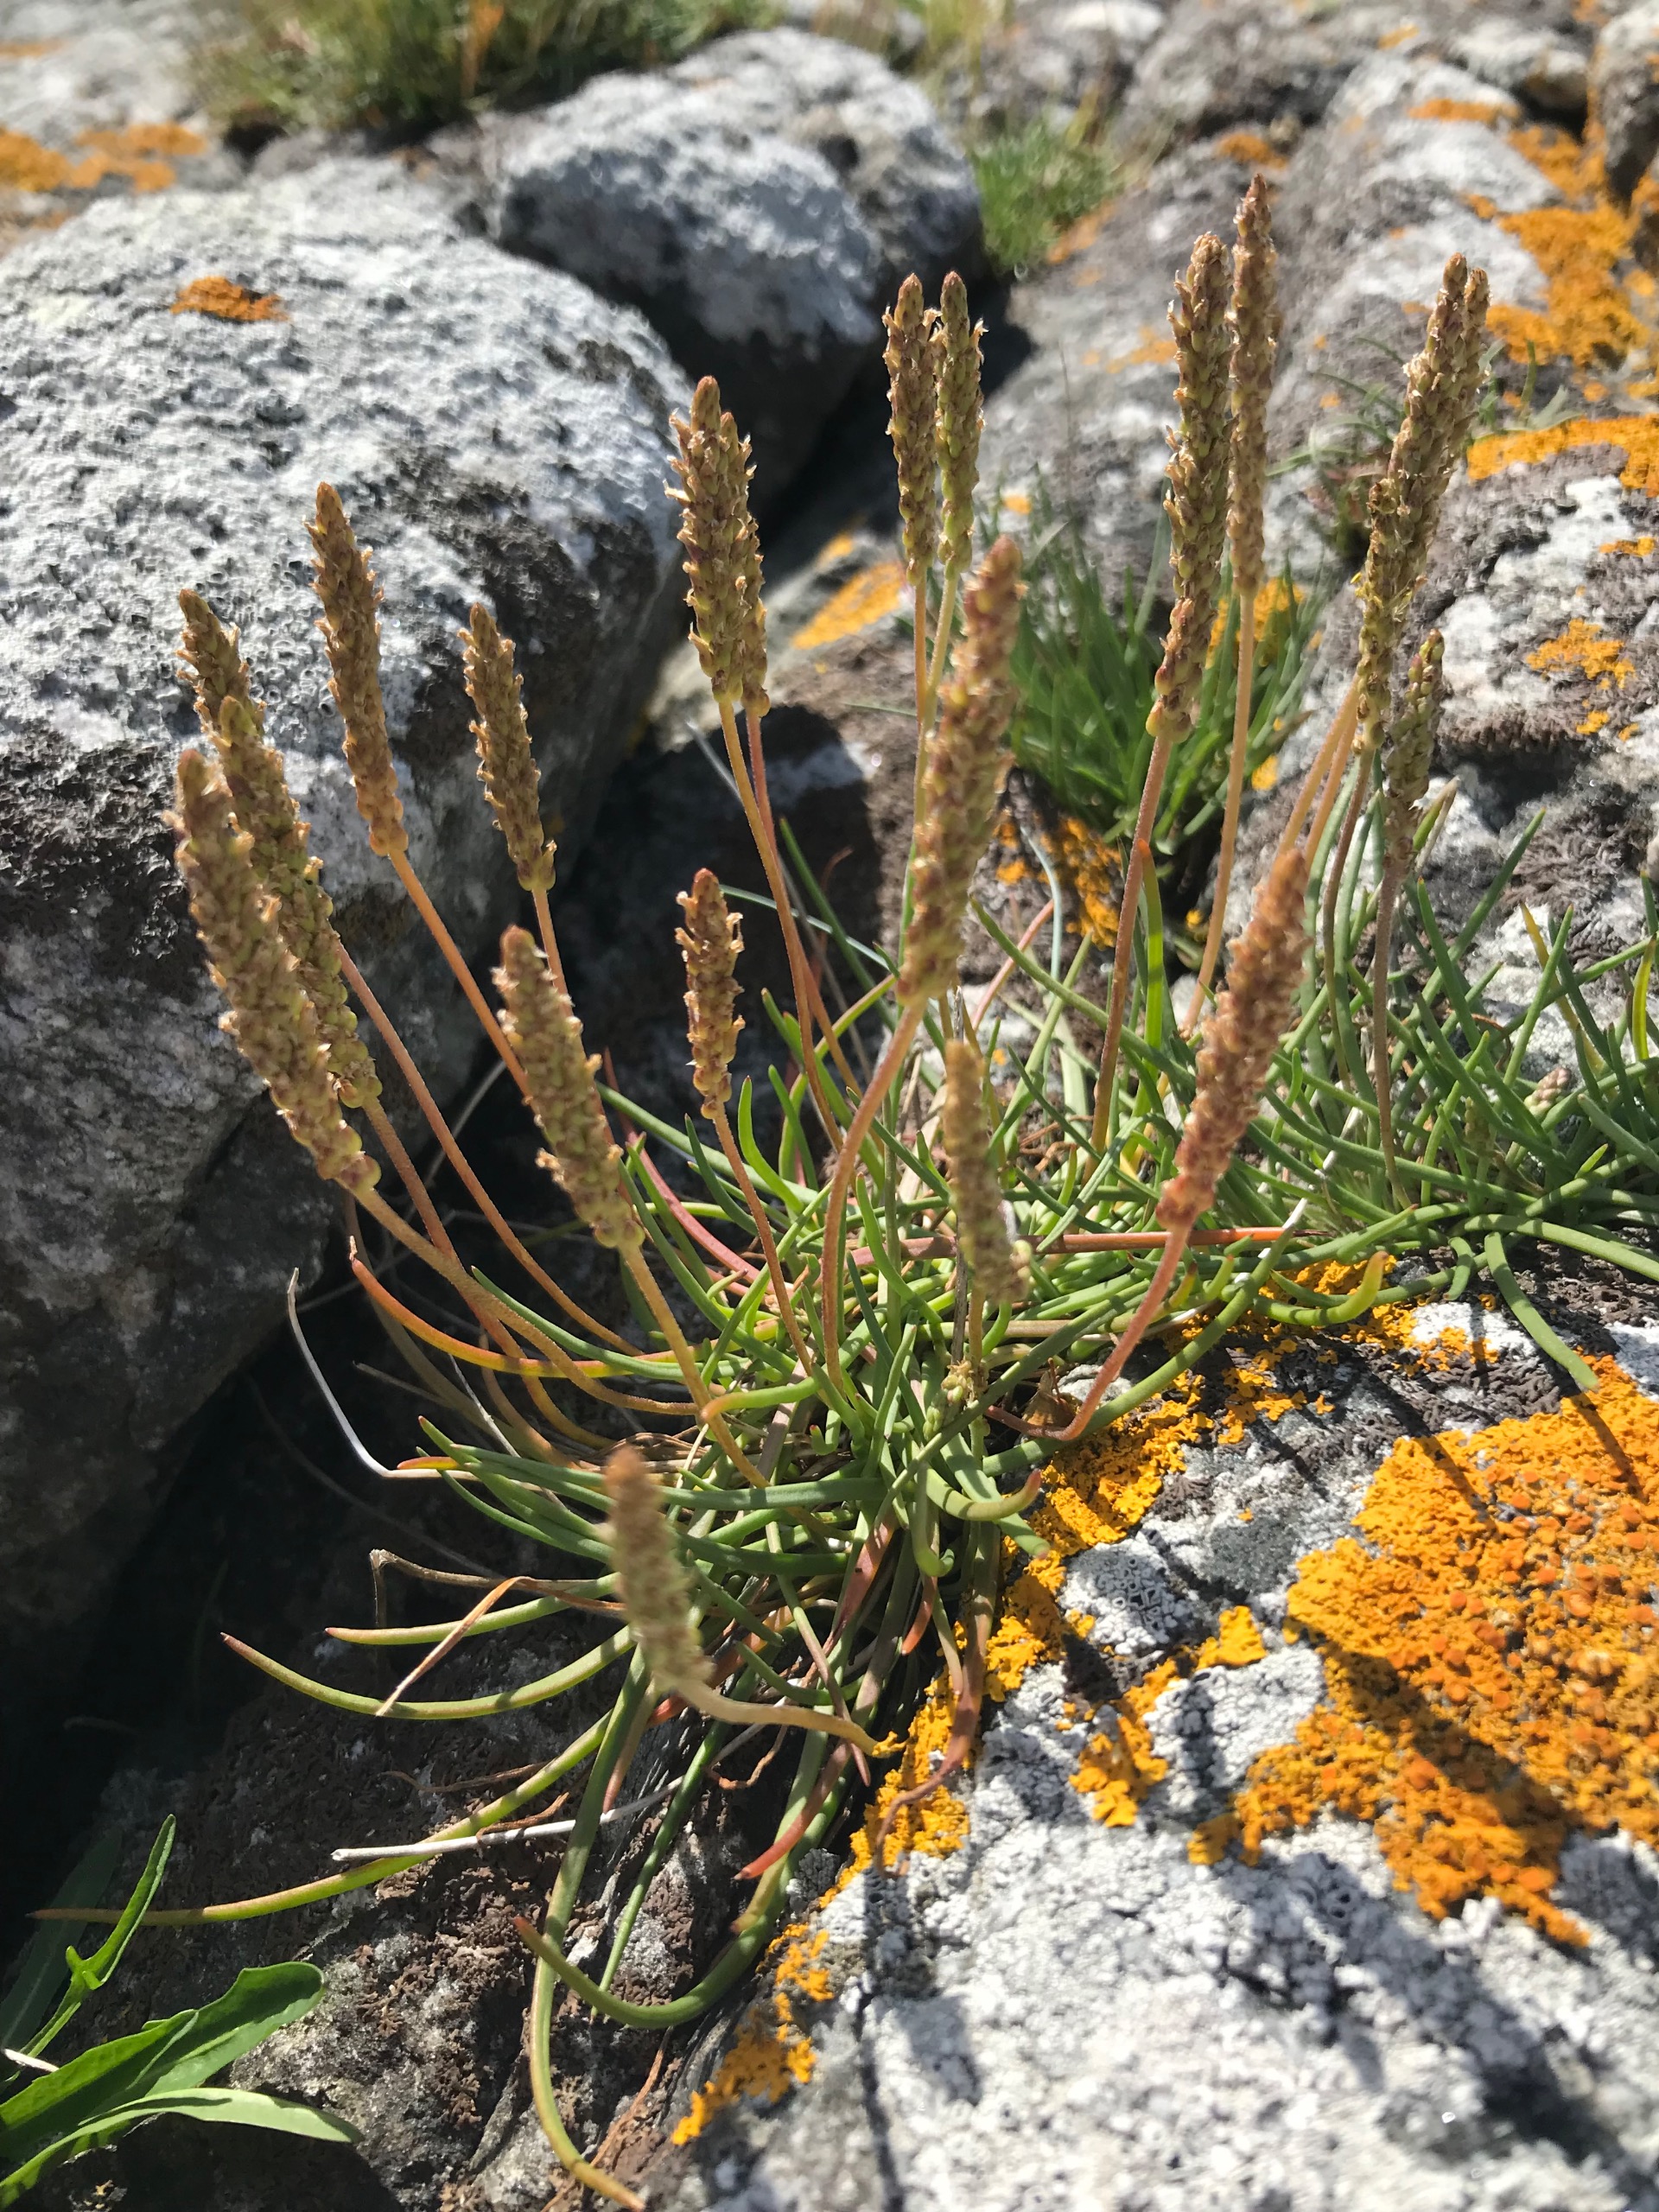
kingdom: Plantae
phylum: Tracheophyta
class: Magnoliopsida
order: Lamiales
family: Plantaginaceae
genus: Plantago
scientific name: Plantago maritima
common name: Strand-vejbred
